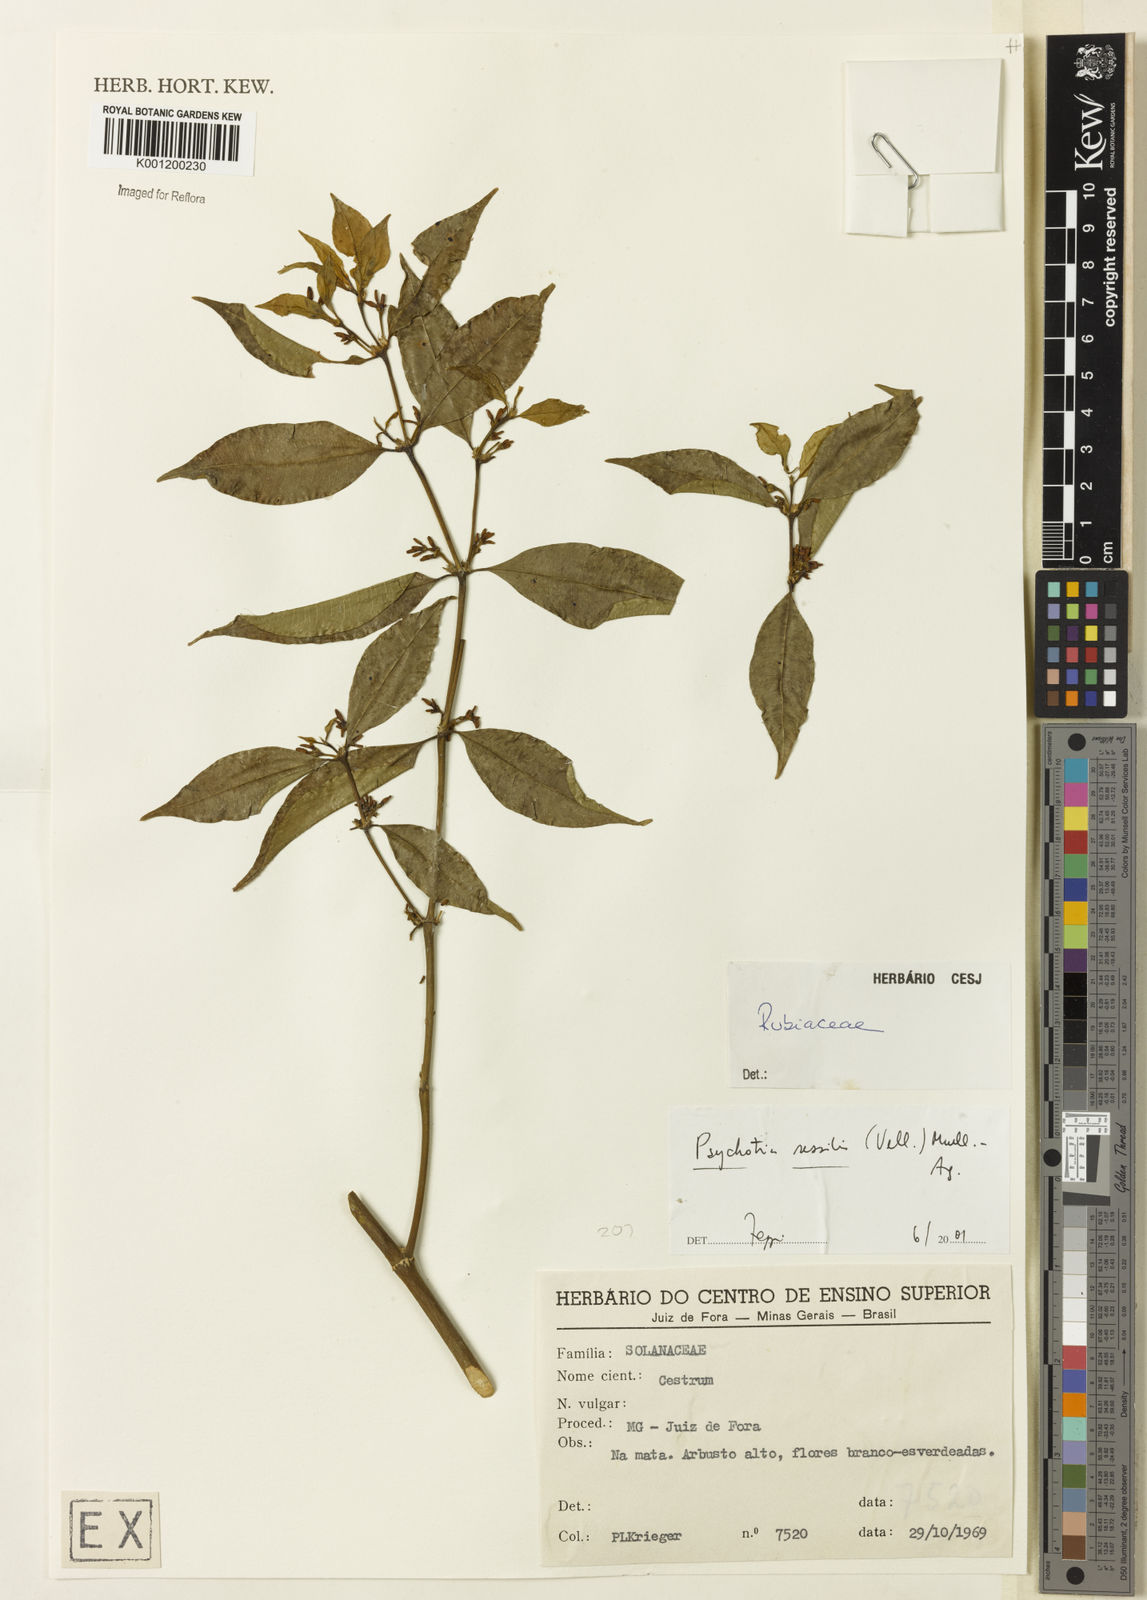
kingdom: Plantae
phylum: Tracheophyta
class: Magnoliopsida
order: Gentianales
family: Rubiaceae
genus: Rudgea
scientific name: Rudgea sessilis
